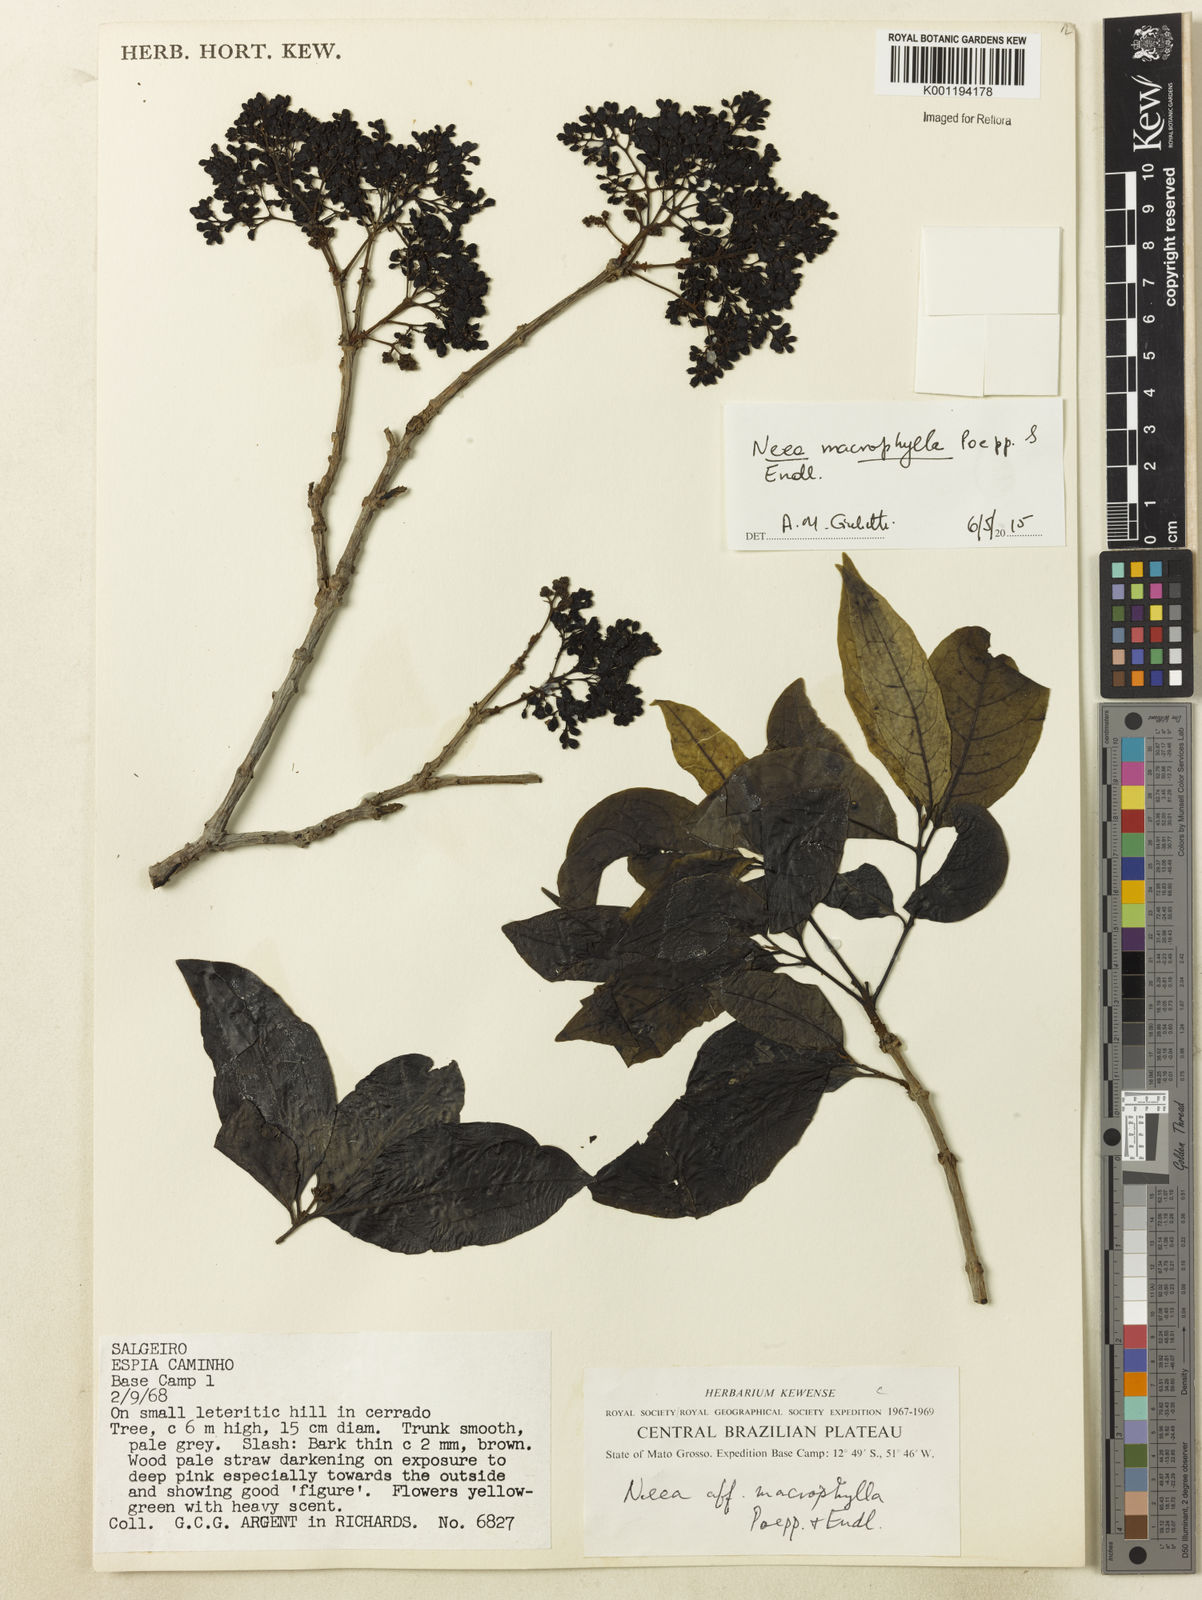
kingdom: Plantae
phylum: Tracheophyta
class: Magnoliopsida
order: Caryophyllales
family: Nyctaginaceae
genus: Neea
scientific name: Neea macrophylla
